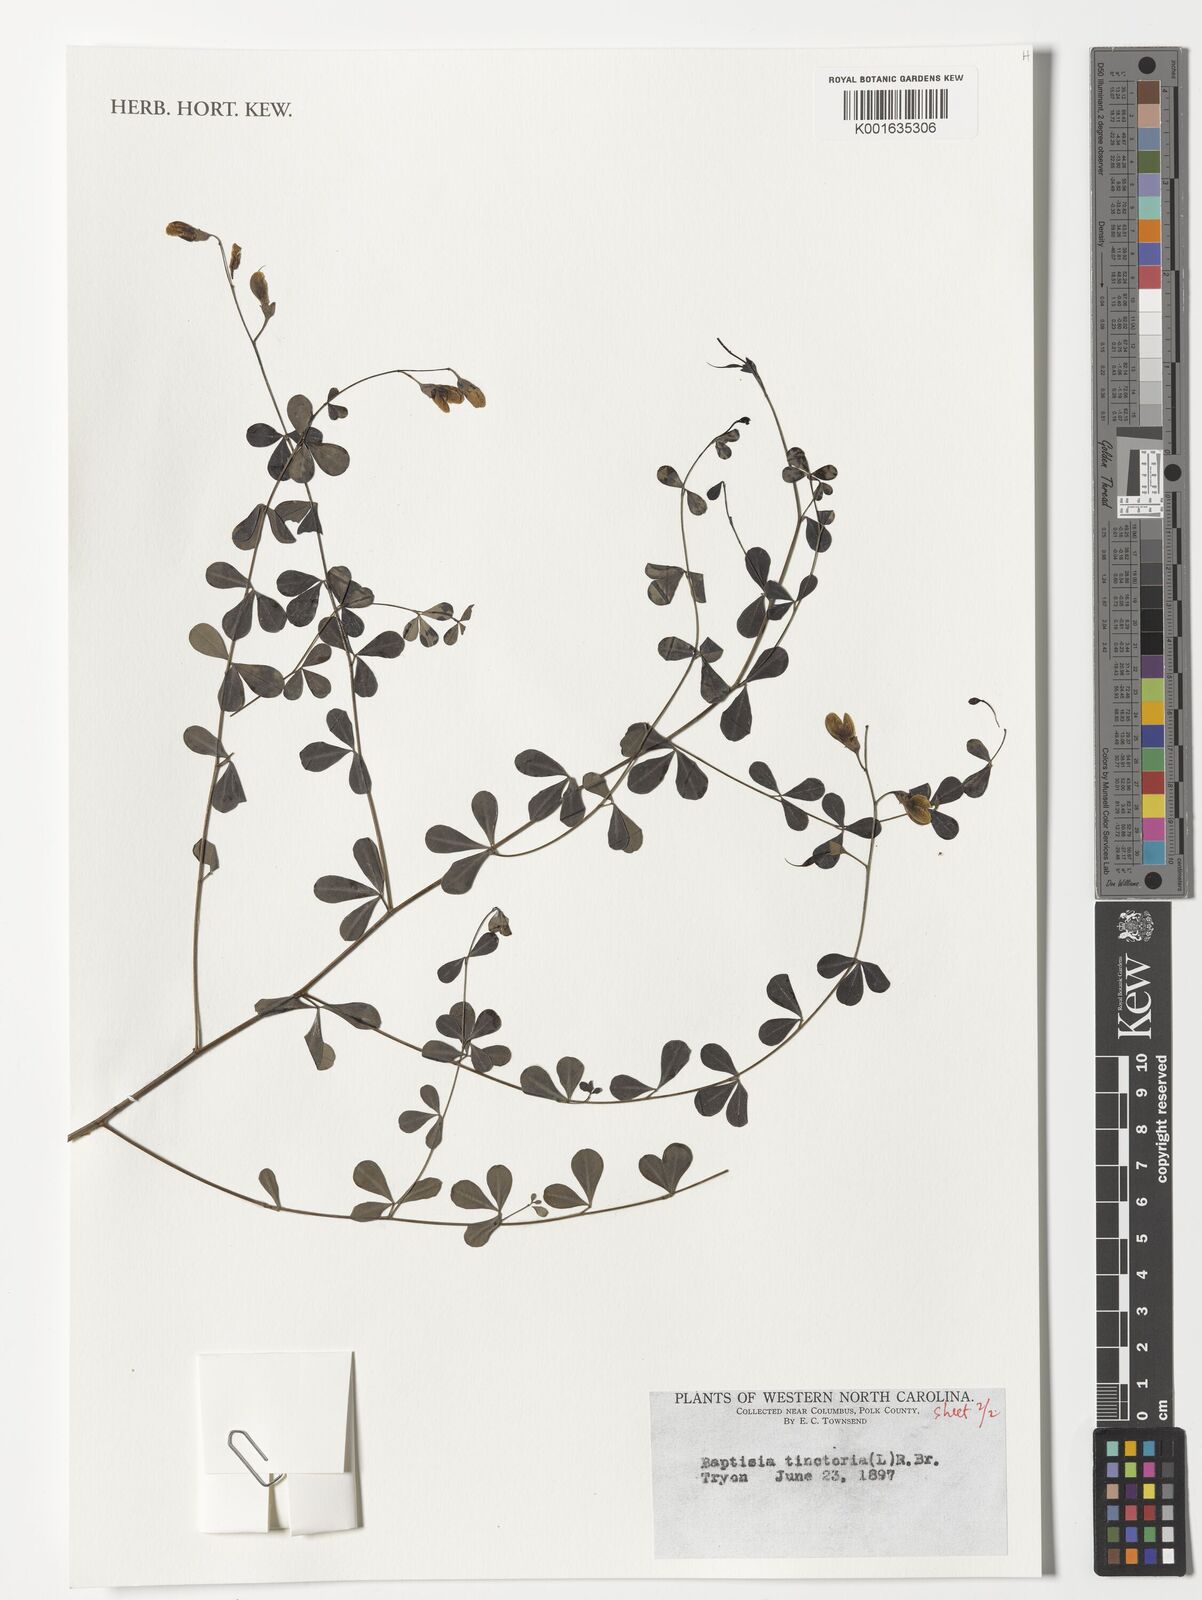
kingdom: Plantae
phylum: Tracheophyta
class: Magnoliopsida
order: Fabales
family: Fabaceae
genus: Baptisia
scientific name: Baptisia tinctoria
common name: Wild indigo
